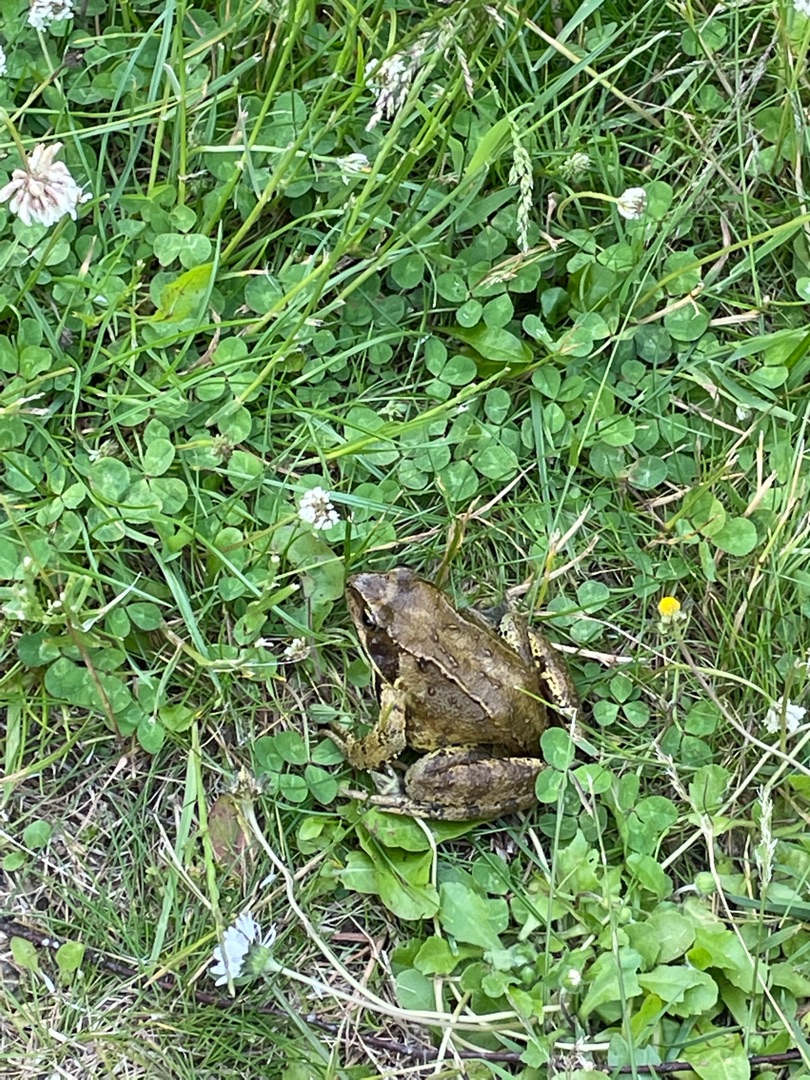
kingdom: Animalia
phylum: Chordata
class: Amphibia
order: Anura
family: Ranidae
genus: Rana
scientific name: Rana temporaria
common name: Butsnudet frø
